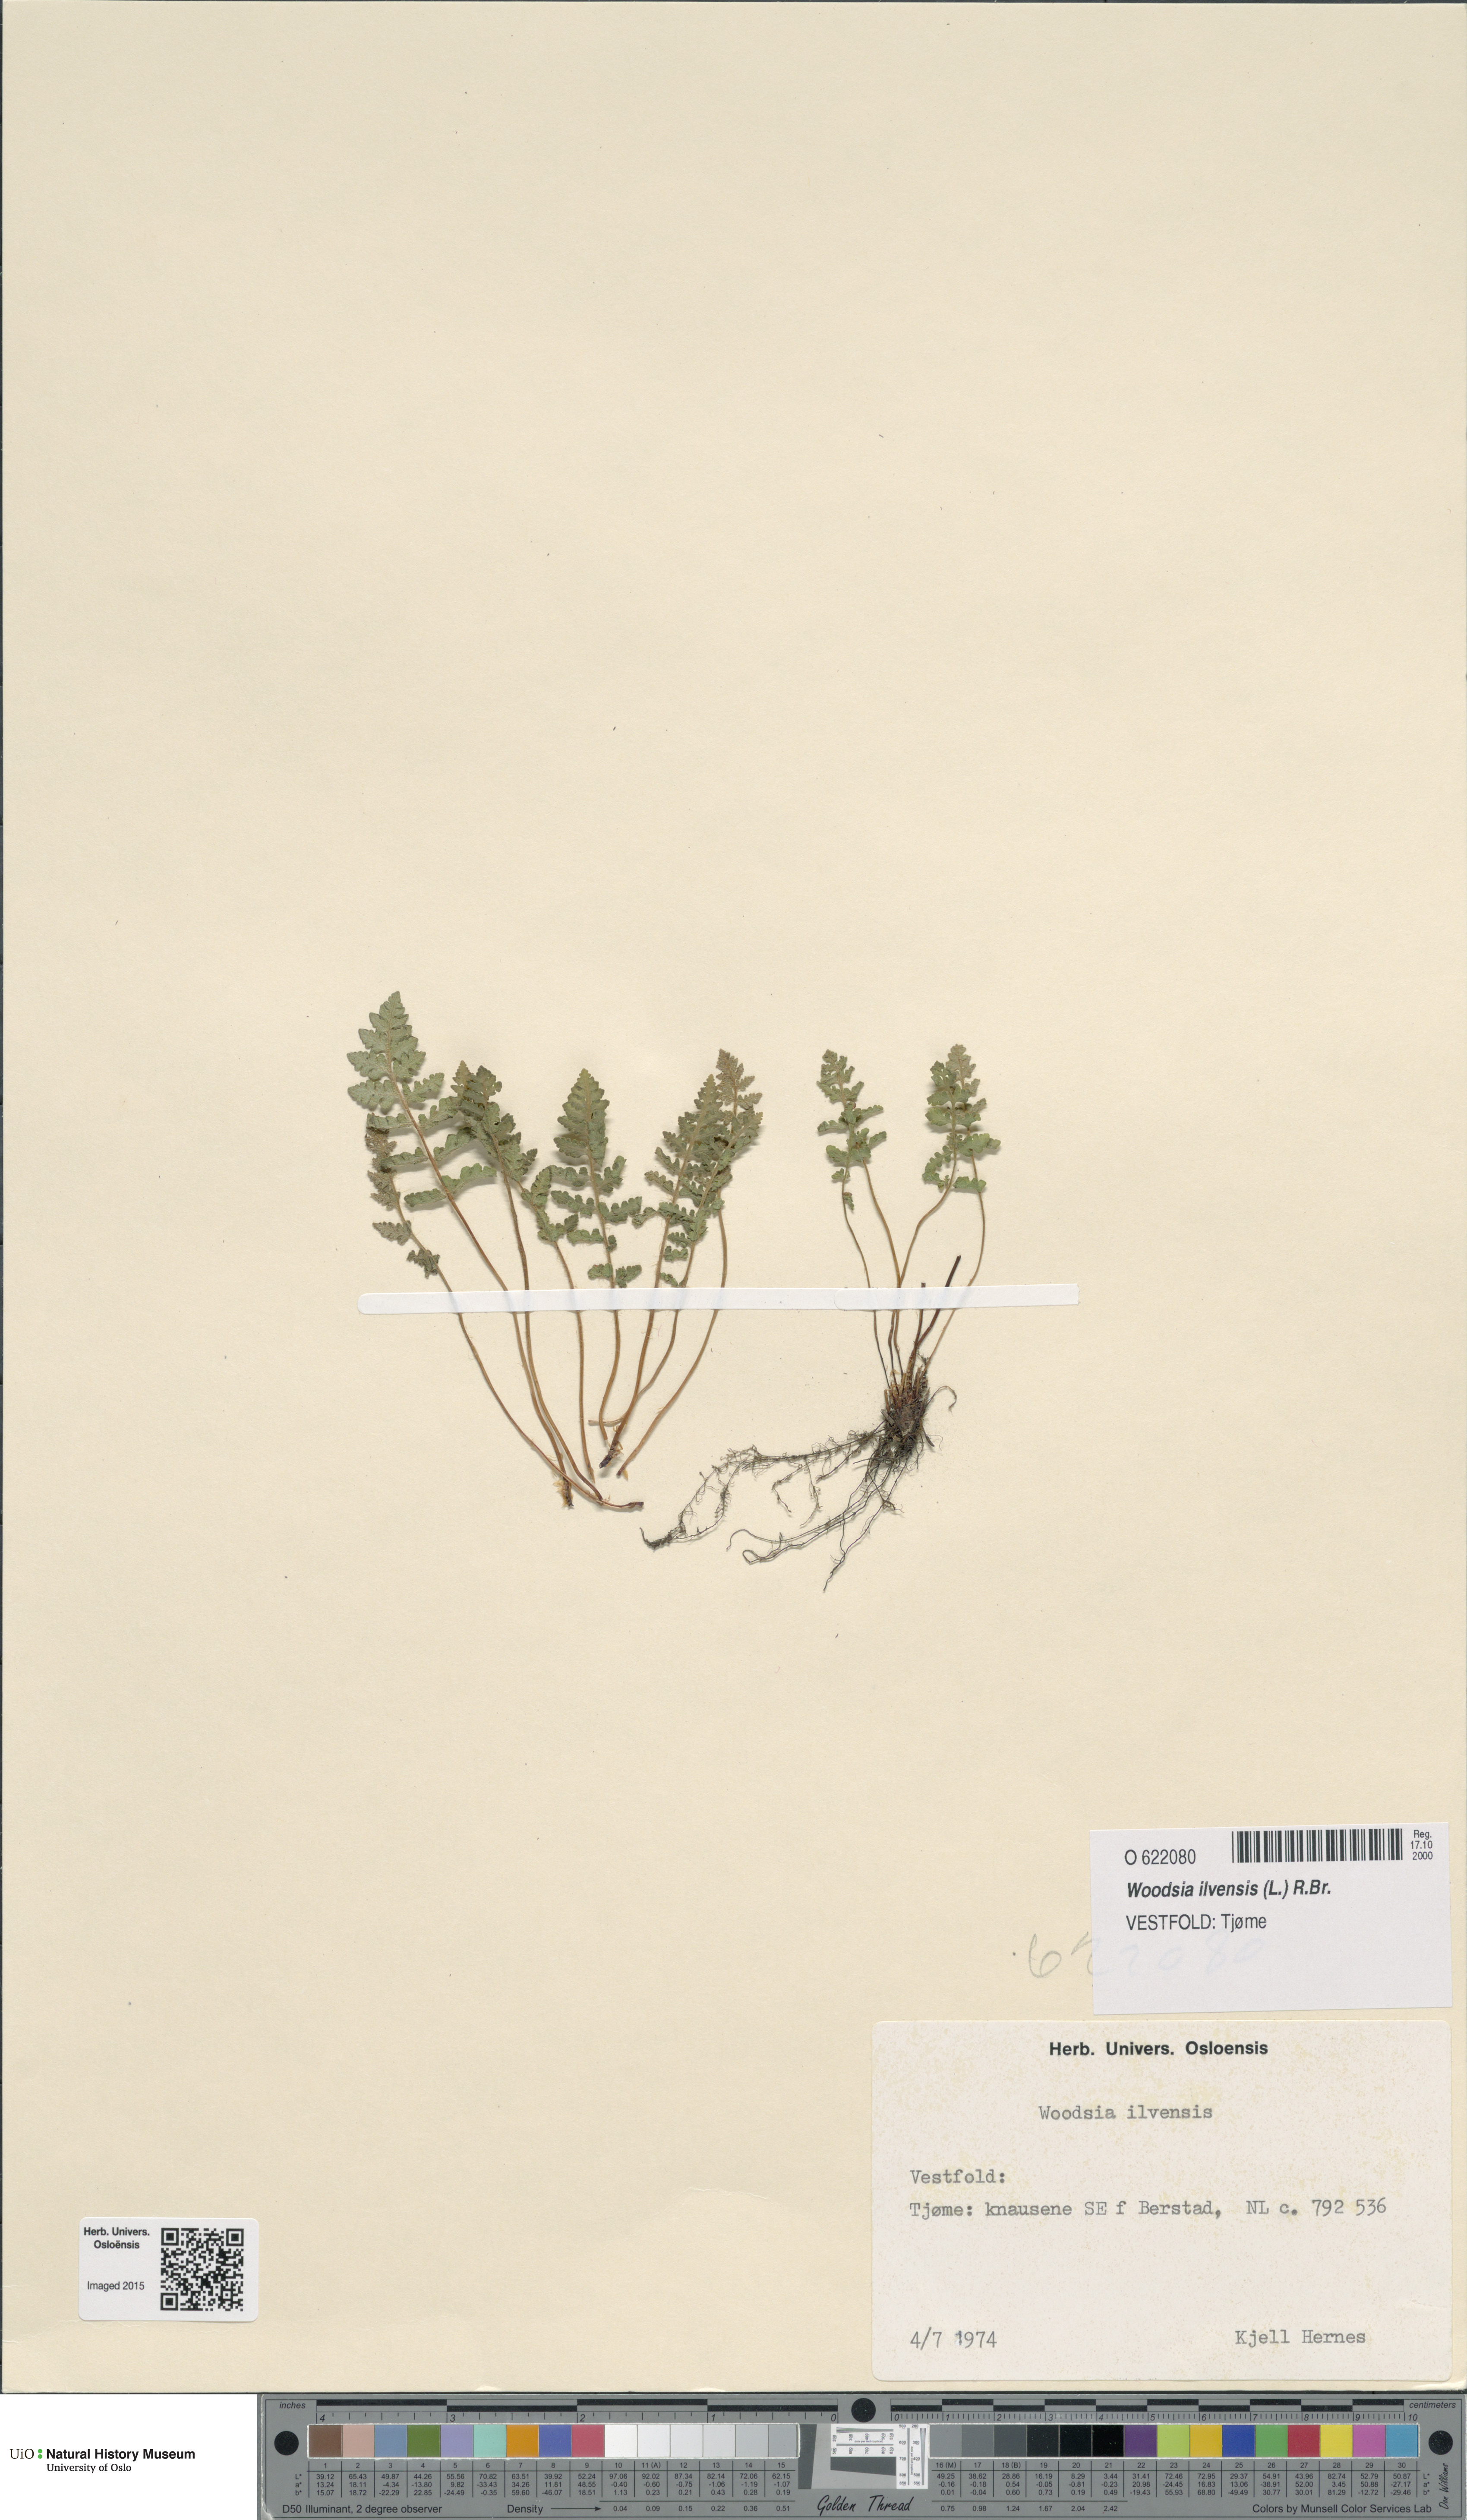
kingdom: Plantae
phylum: Tracheophyta
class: Polypodiopsida
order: Polypodiales
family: Woodsiaceae
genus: Woodsia
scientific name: Woodsia ilvensis
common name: Fragrant woodsia
